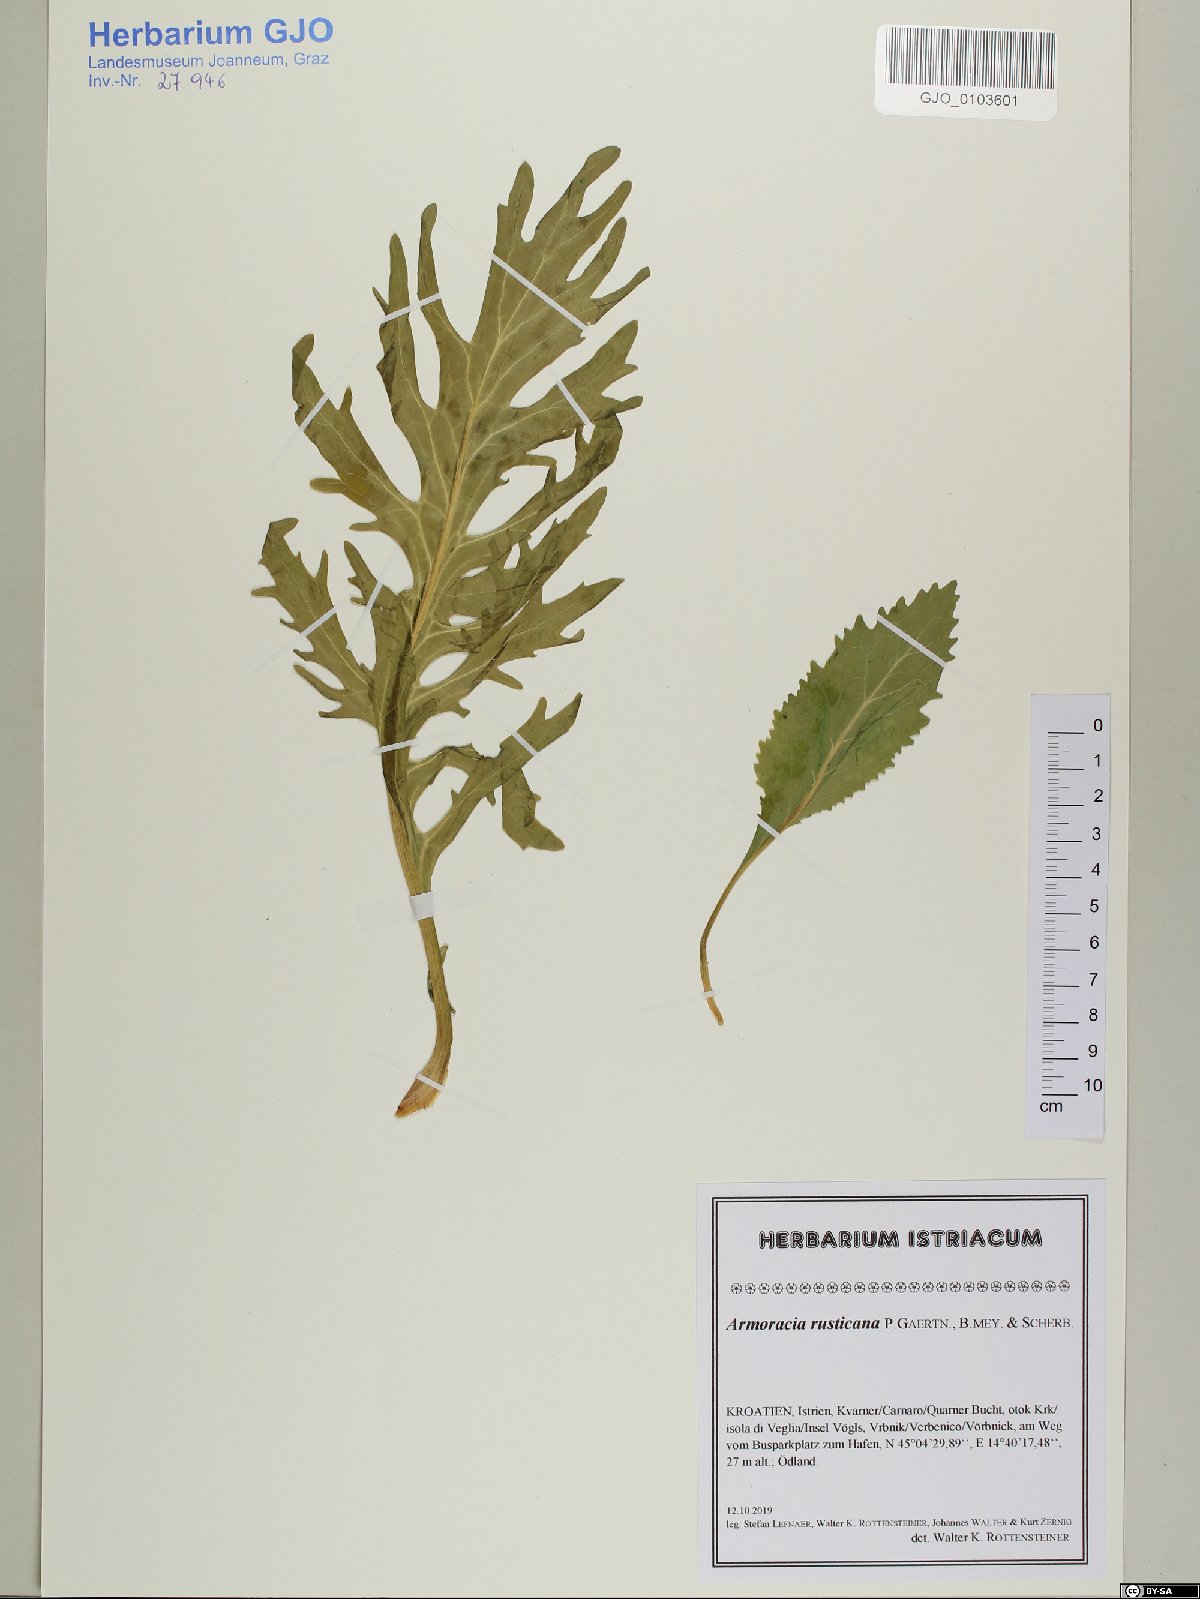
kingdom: Plantae
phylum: Tracheophyta
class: Magnoliopsida
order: Brassicales
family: Brassicaceae
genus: Armoracia
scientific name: Armoracia rusticana
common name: Horseradish
